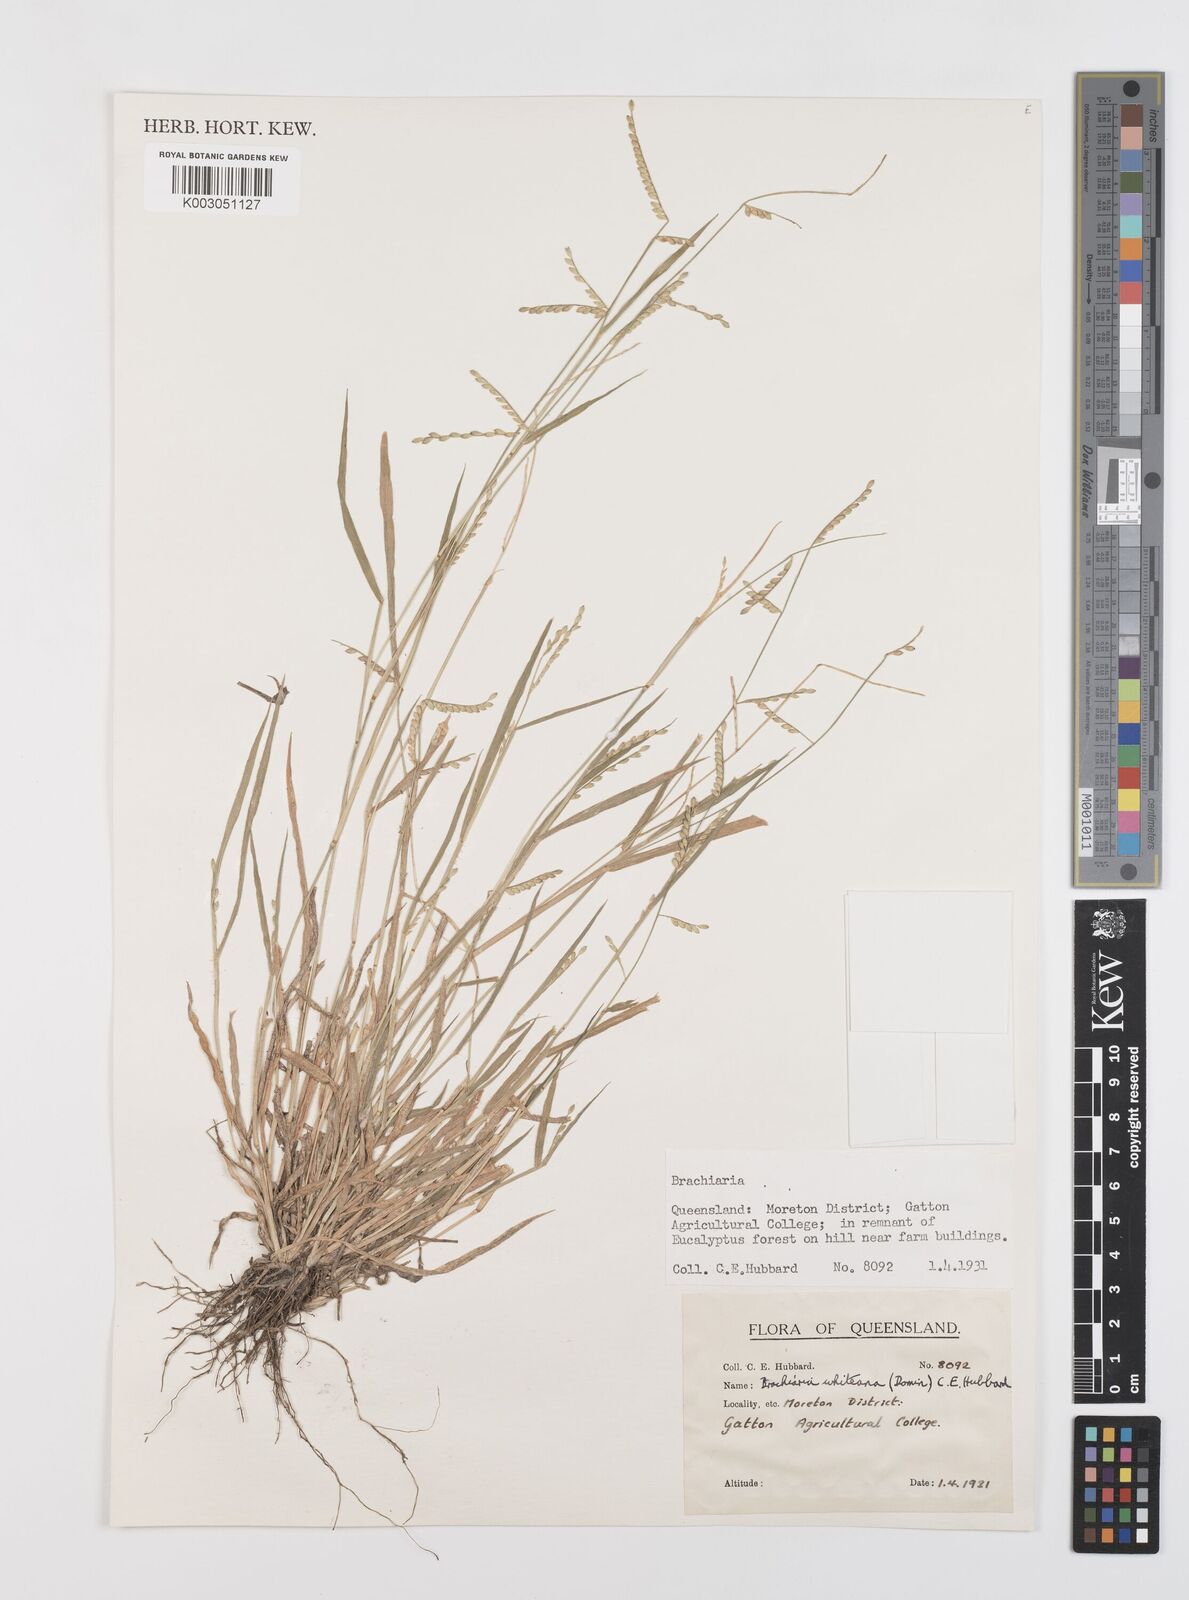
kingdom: Plantae
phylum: Tracheophyta
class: Liliopsida
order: Poales
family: Poaceae
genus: Urochloa
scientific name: Urochloa whiteana
